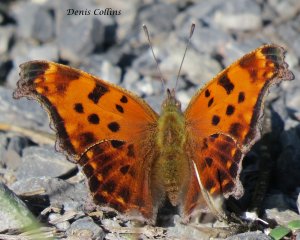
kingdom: Animalia
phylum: Arthropoda
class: Insecta
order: Lepidoptera
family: Nymphalidae
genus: Polygonia
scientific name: Polygonia comma
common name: Eastern Comma
